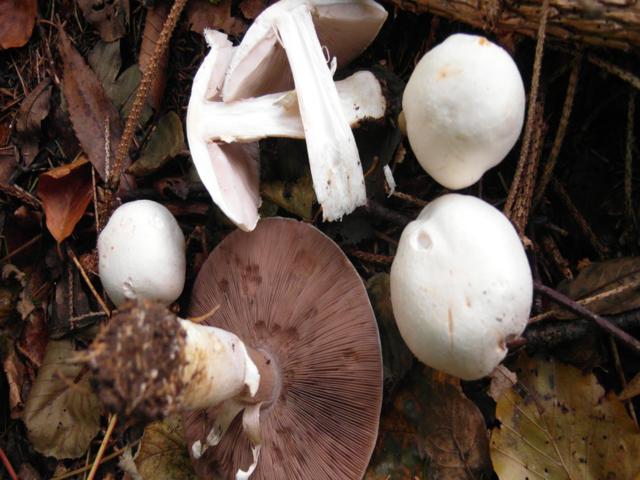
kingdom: Fungi
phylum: Basidiomycota
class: Agaricomycetes
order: Agaricales
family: Agaricaceae
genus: Agaricus
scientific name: Agaricus sylvicola
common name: gulhvid champignon
